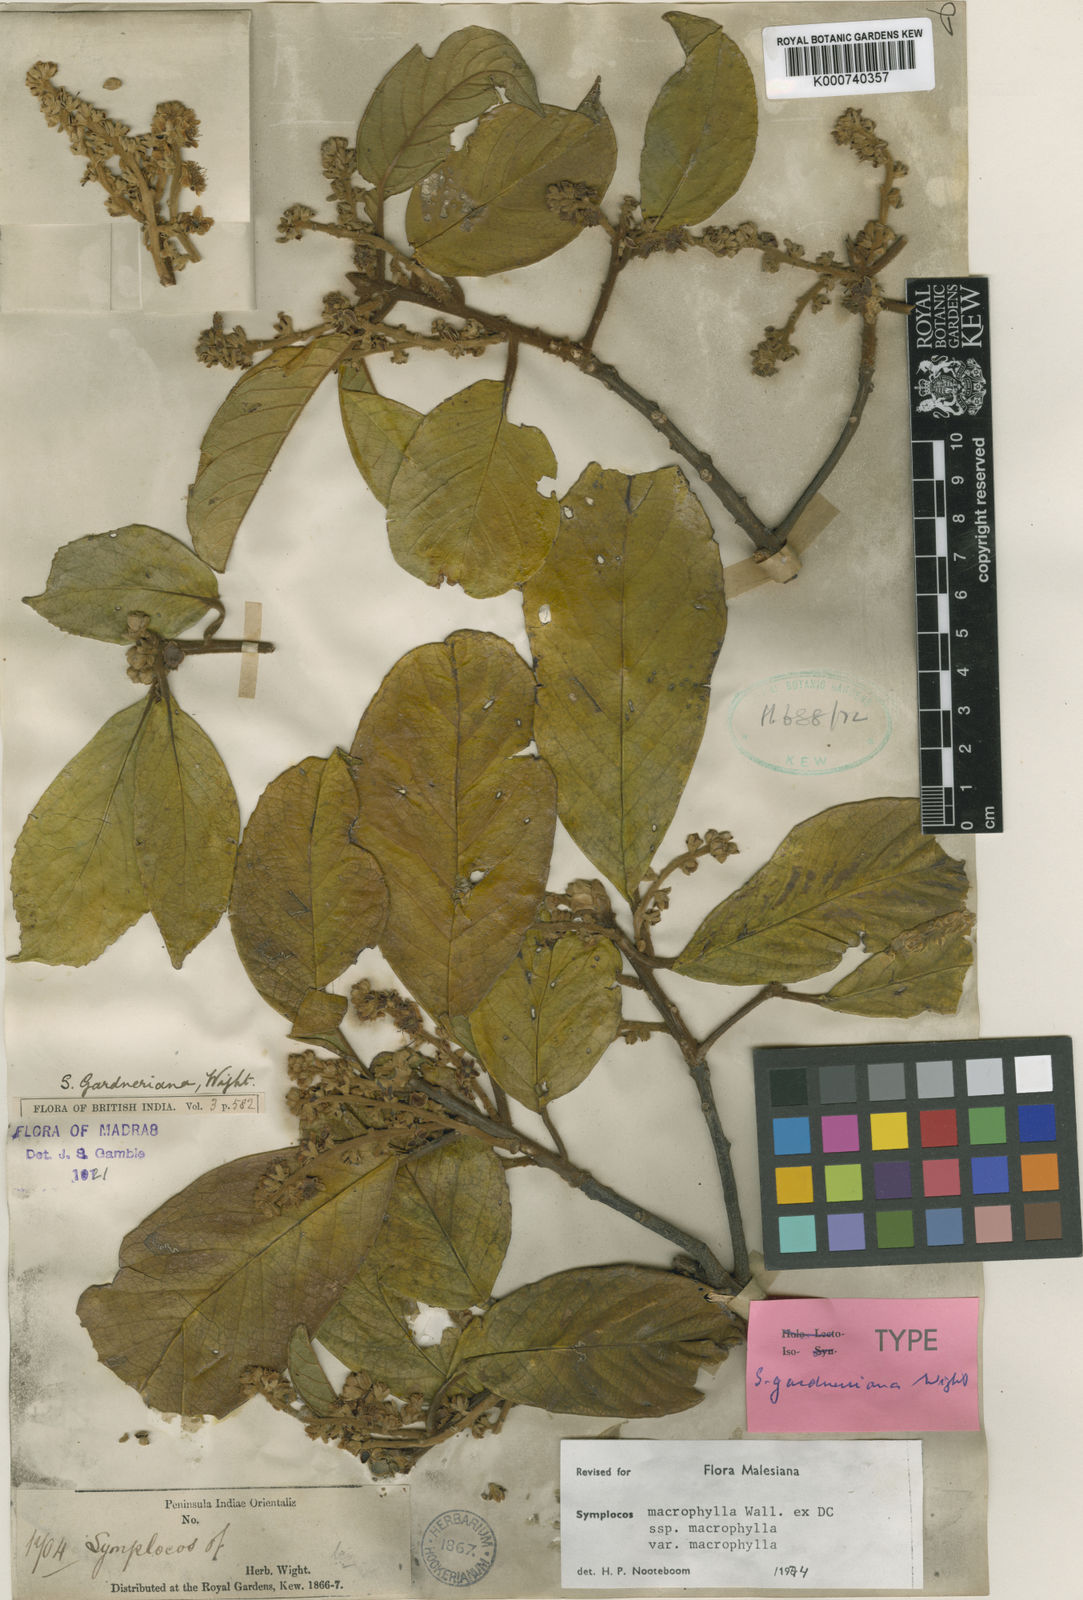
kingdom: Plantae
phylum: Tracheophyta
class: Magnoliopsida
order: Ericales
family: Symplocaceae
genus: Symplocos
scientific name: Symplocos
